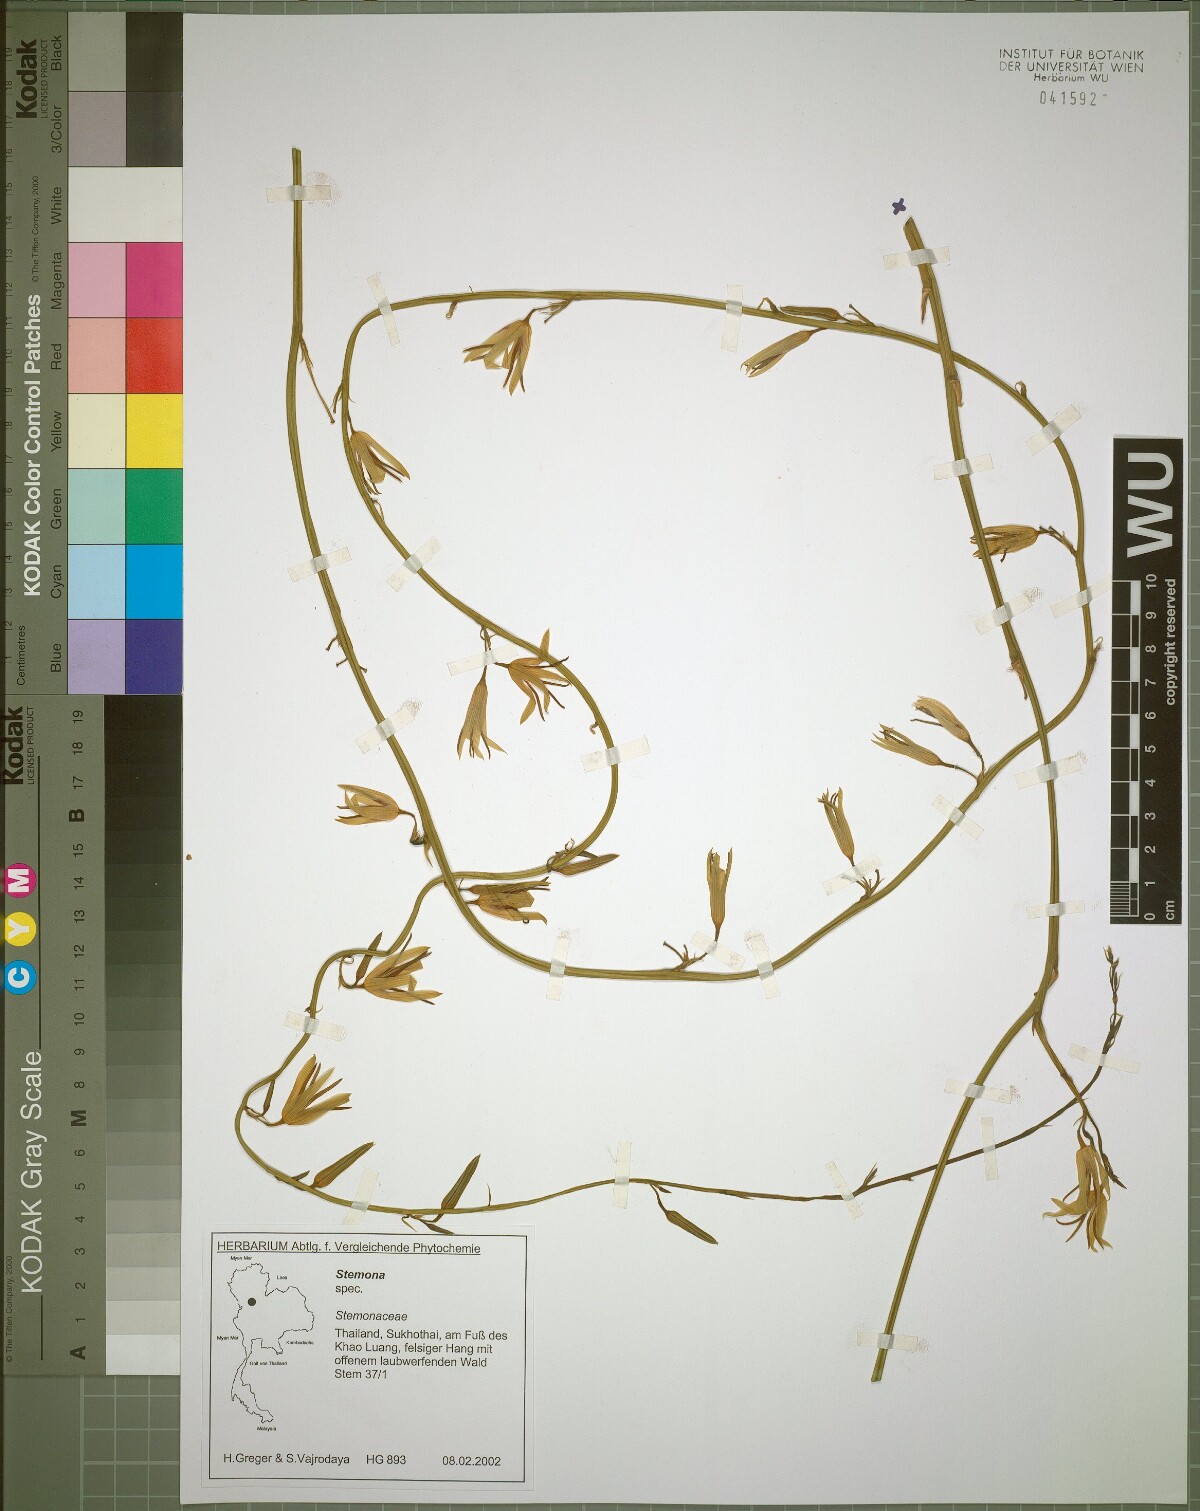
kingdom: Plantae
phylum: Tracheophyta
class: Liliopsida
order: Pandanales
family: Stemonaceae
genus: Stemona
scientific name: Stemona aphylla
